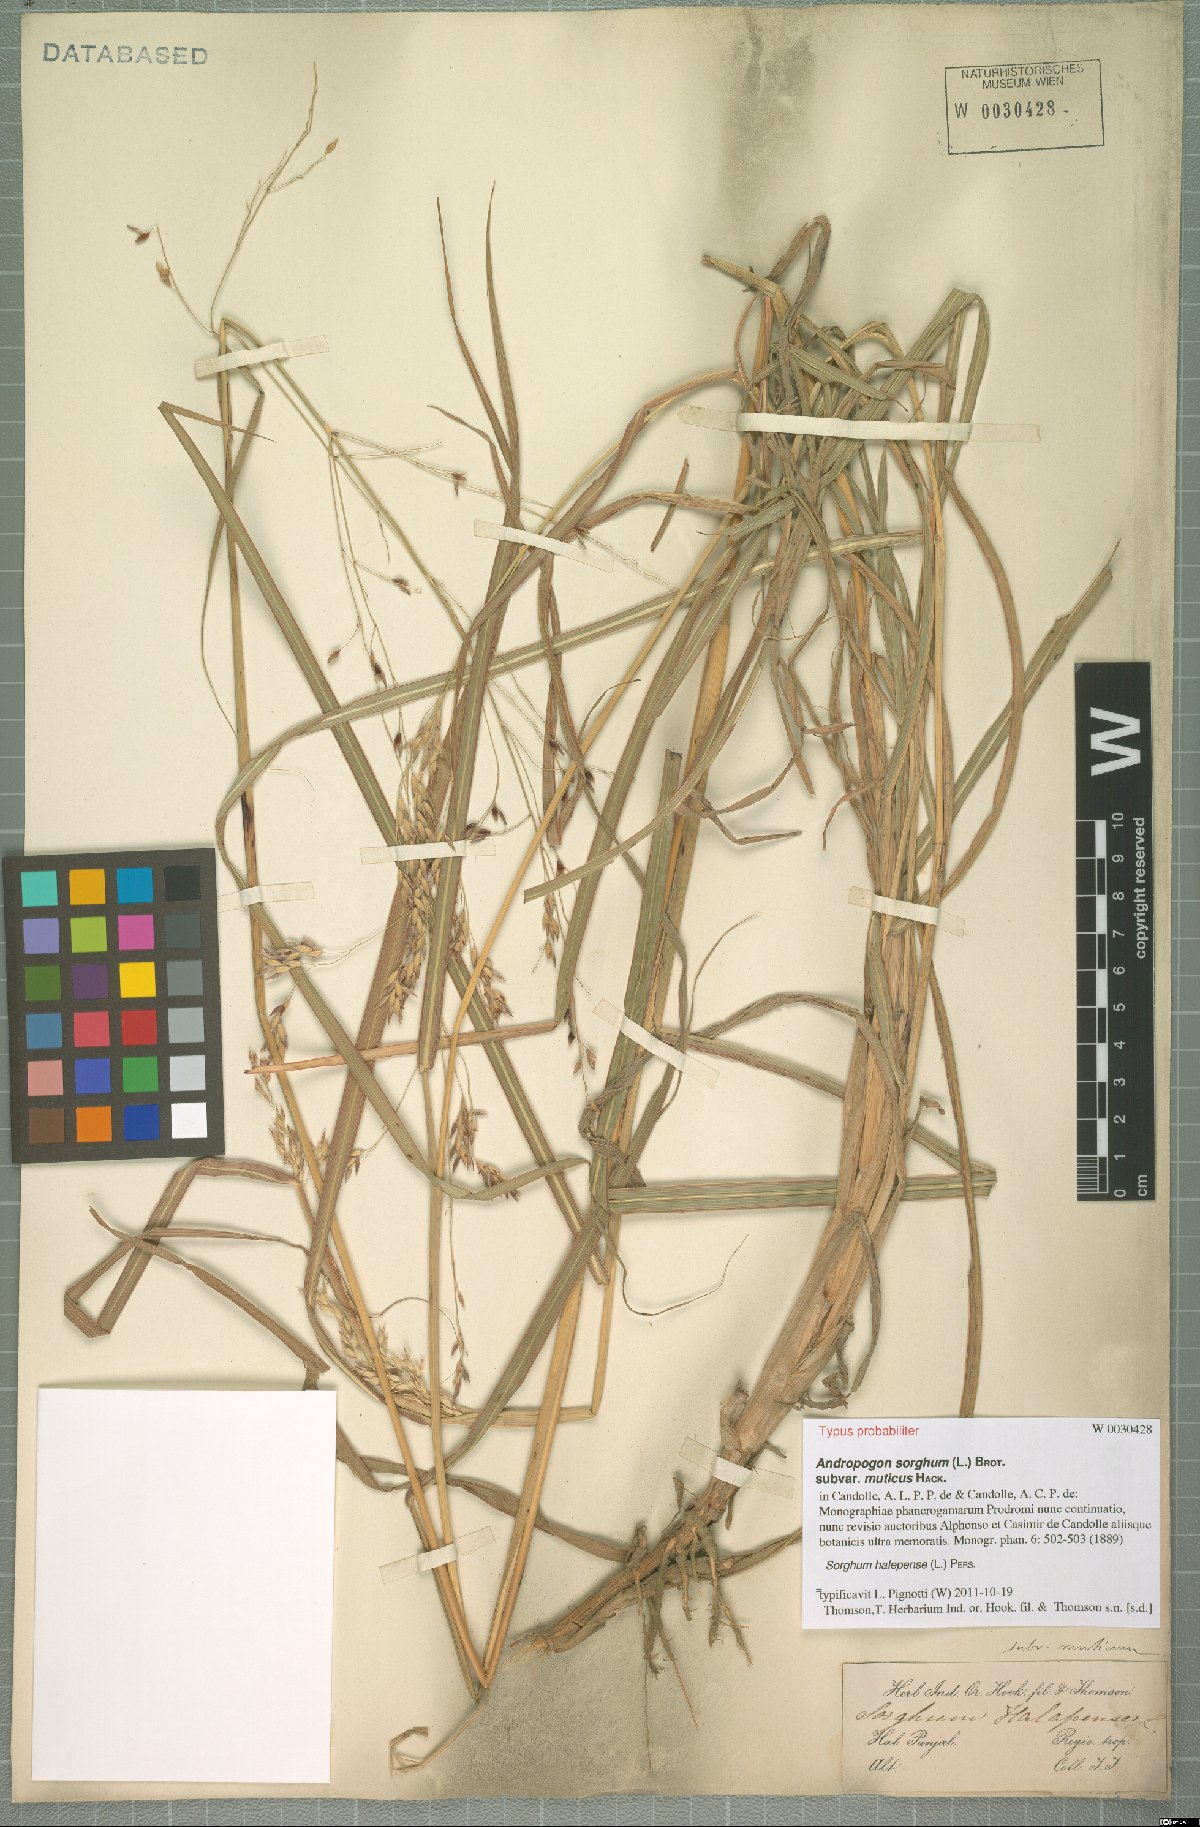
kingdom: Plantae
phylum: Tracheophyta
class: Liliopsida
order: Poales
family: Poaceae
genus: Sorghum
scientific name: Sorghum halepense
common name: Johnson-grass
